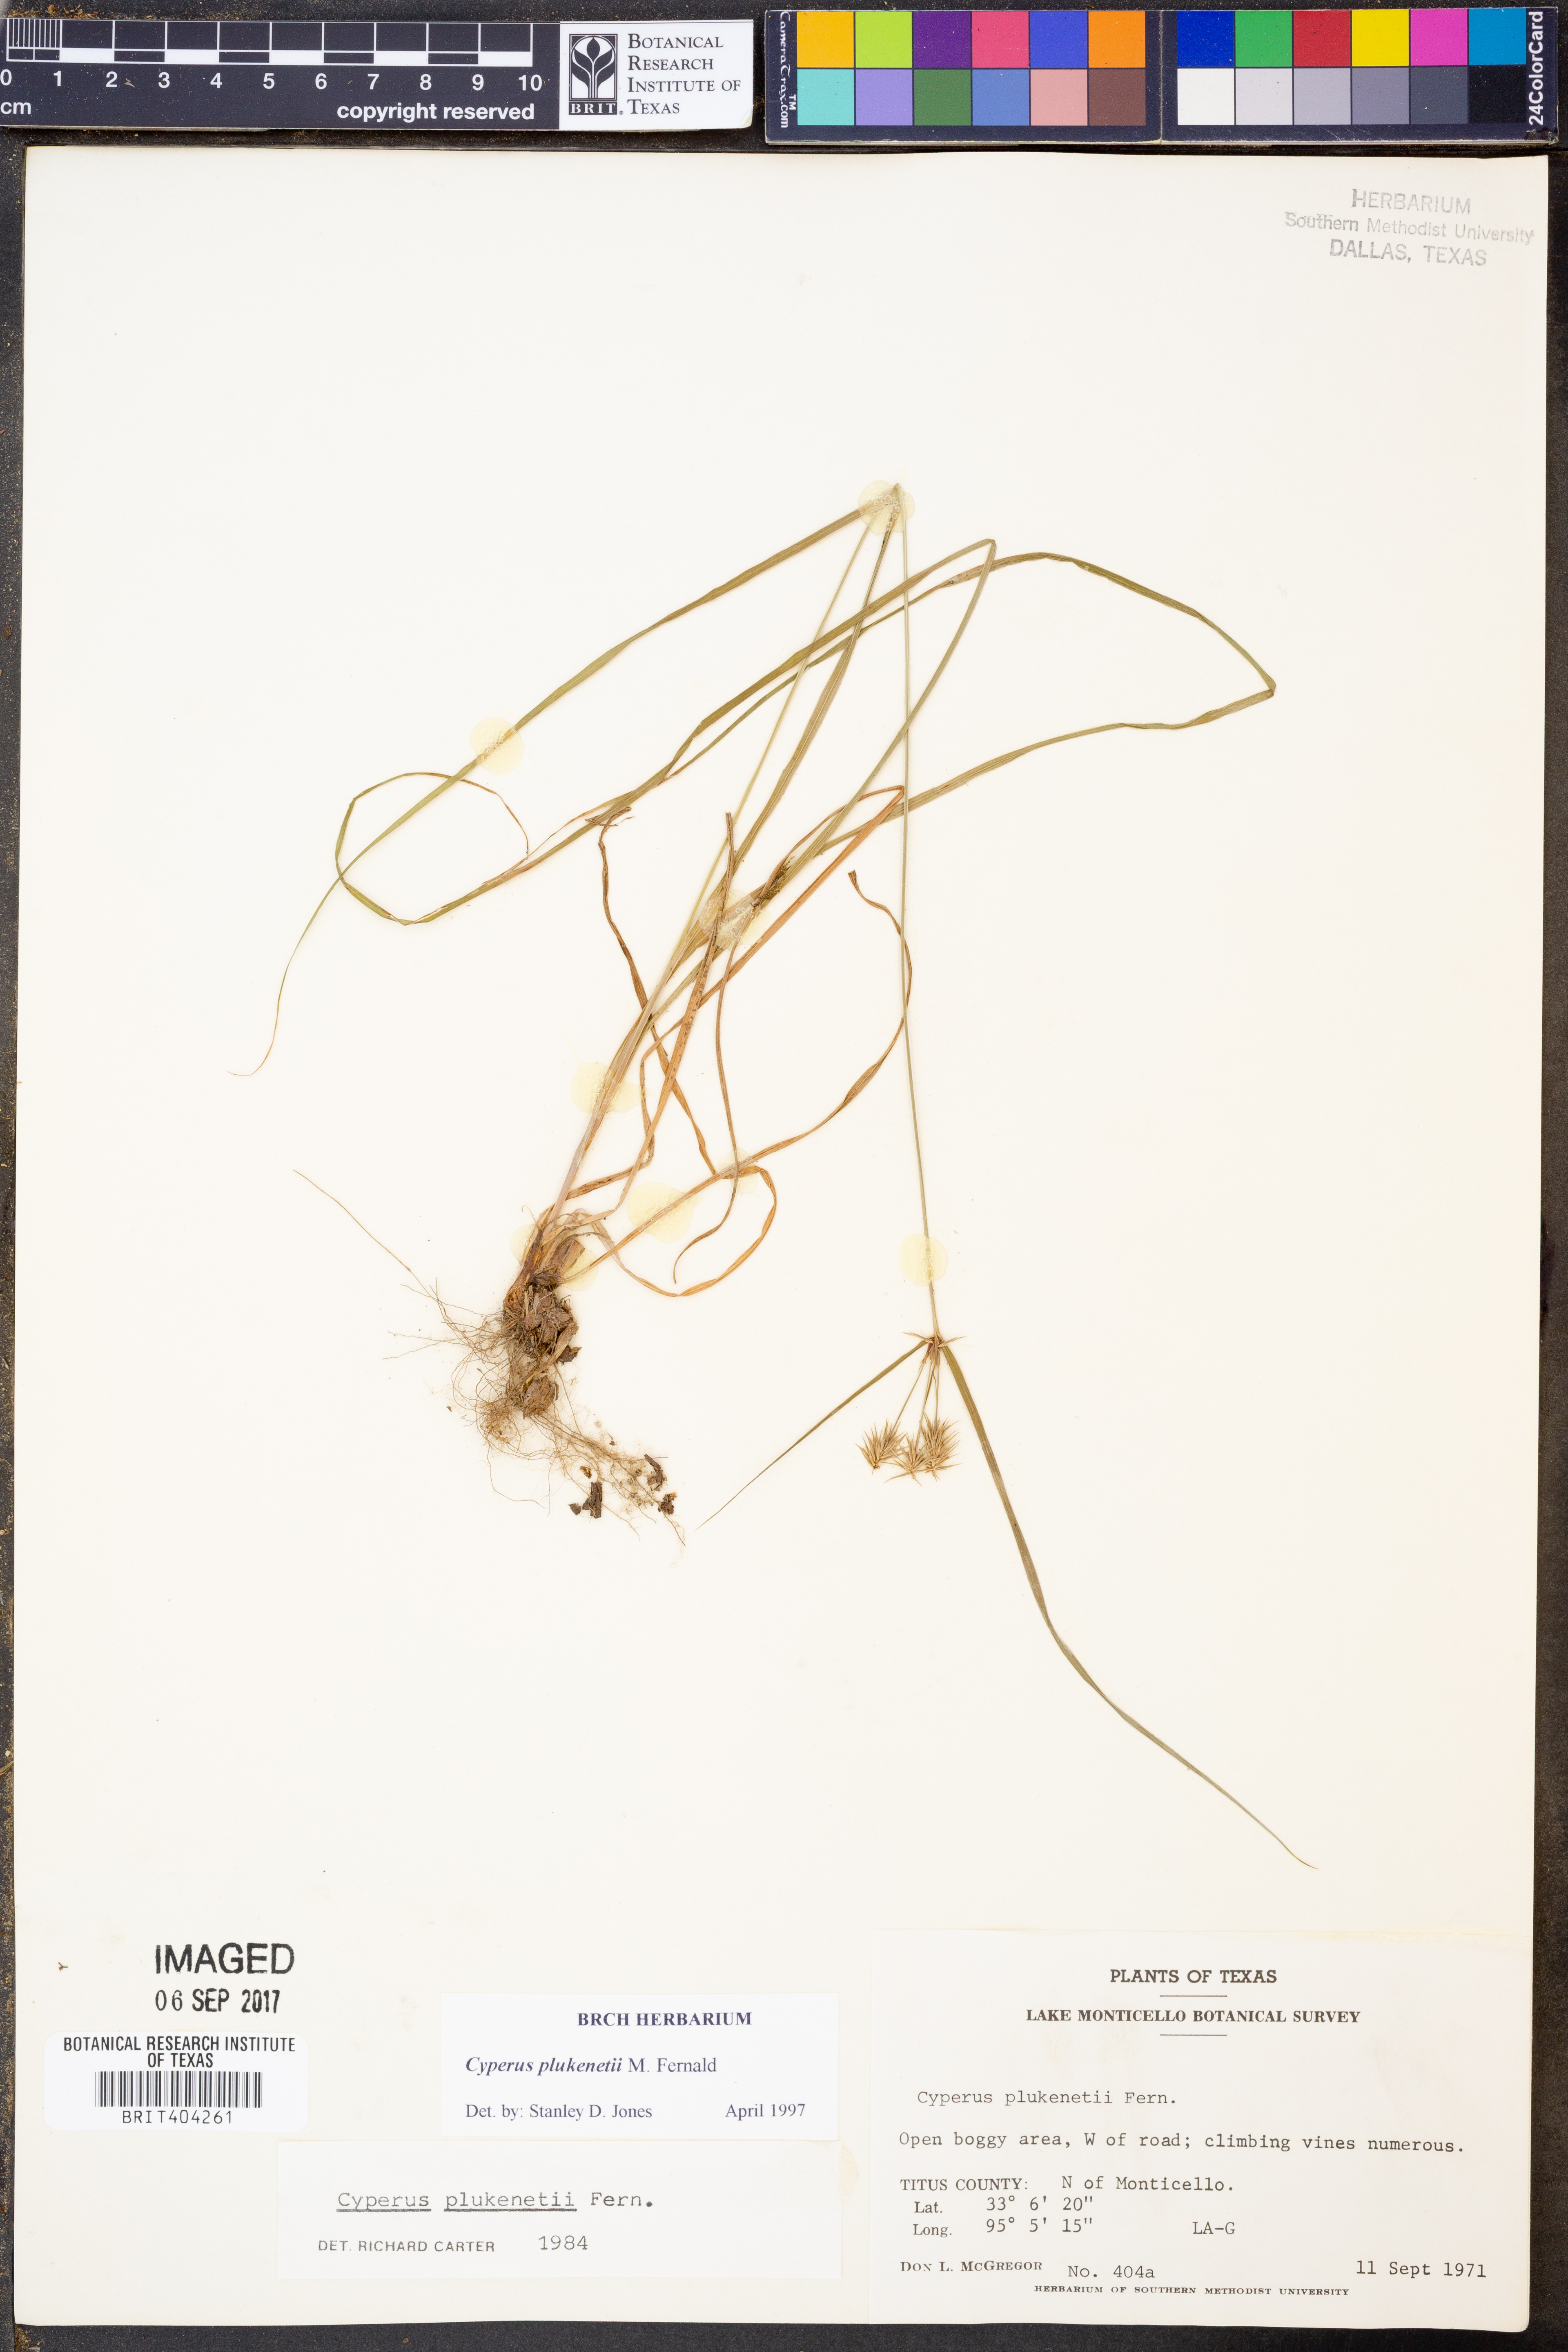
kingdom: Plantae
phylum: Tracheophyta
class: Liliopsida
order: Poales
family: Cyperaceae
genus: Cyperus
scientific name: Cyperus plukenetii
